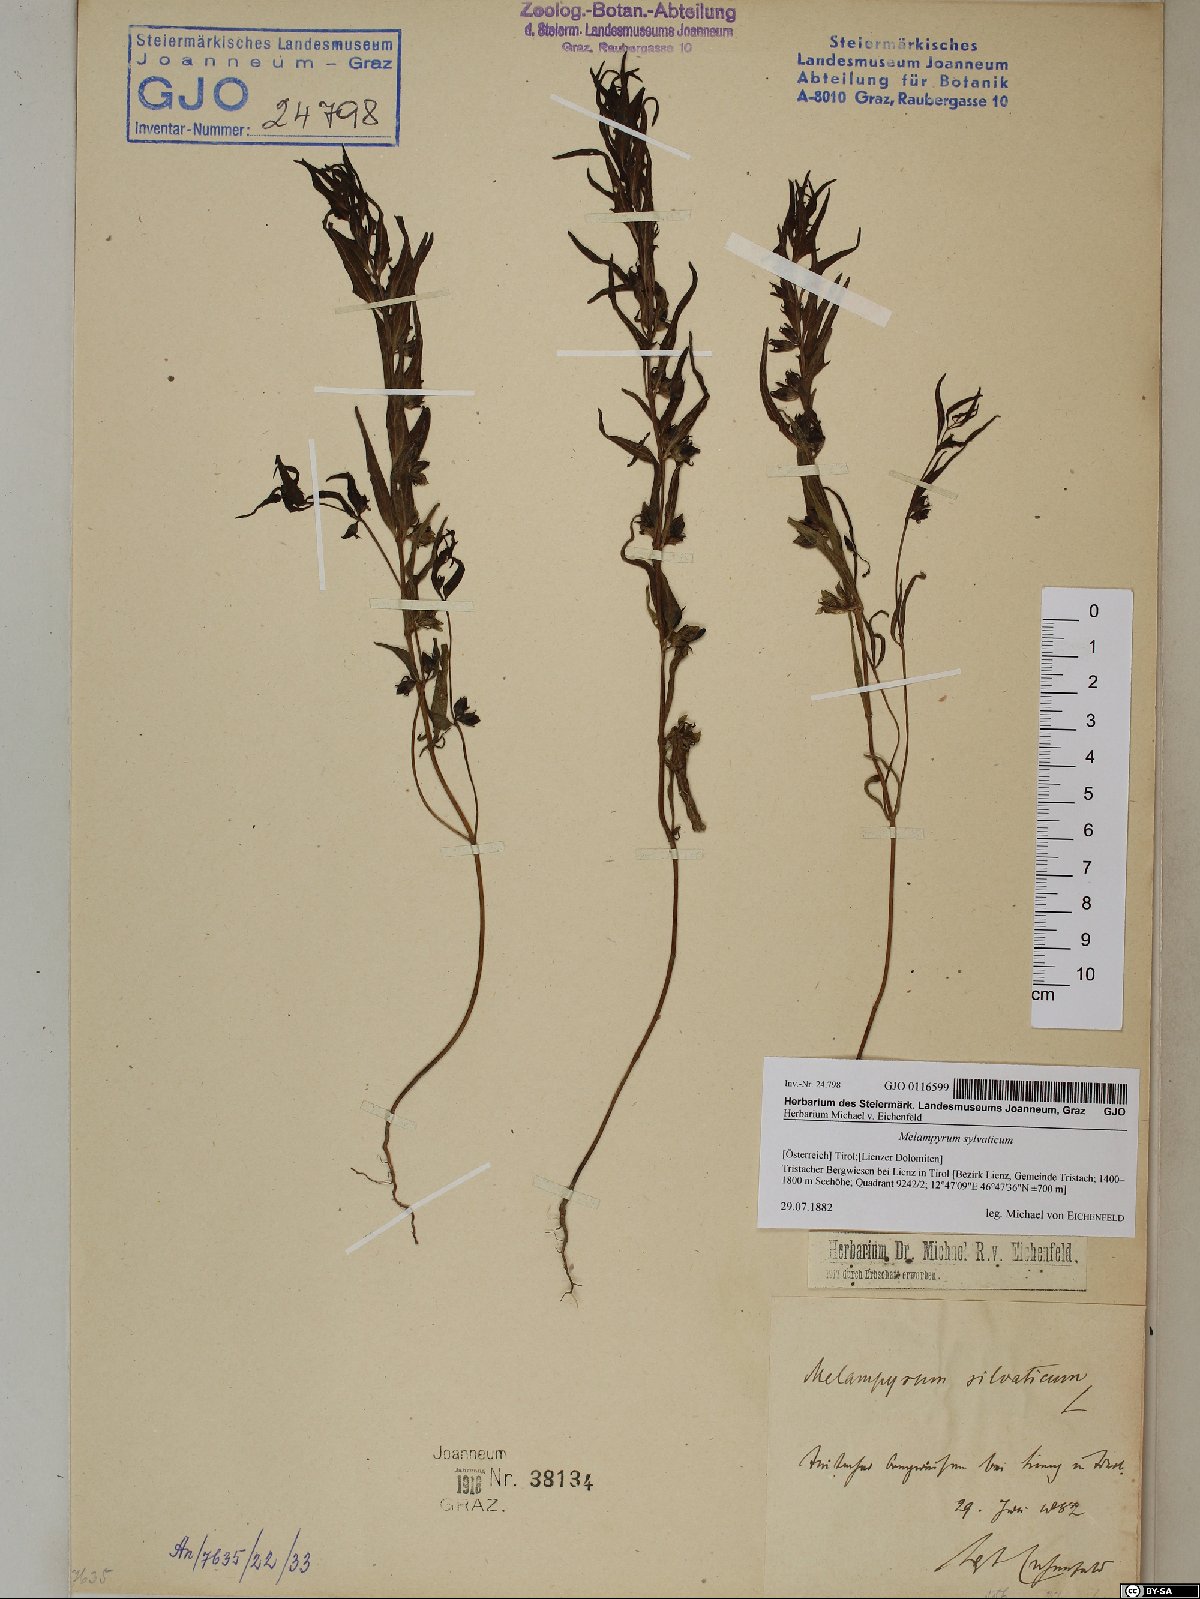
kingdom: Plantae
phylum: Tracheophyta
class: Magnoliopsida
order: Lamiales
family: Orobanchaceae
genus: Melampyrum
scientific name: Melampyrum sylvaticum
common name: Small cow-wheat
